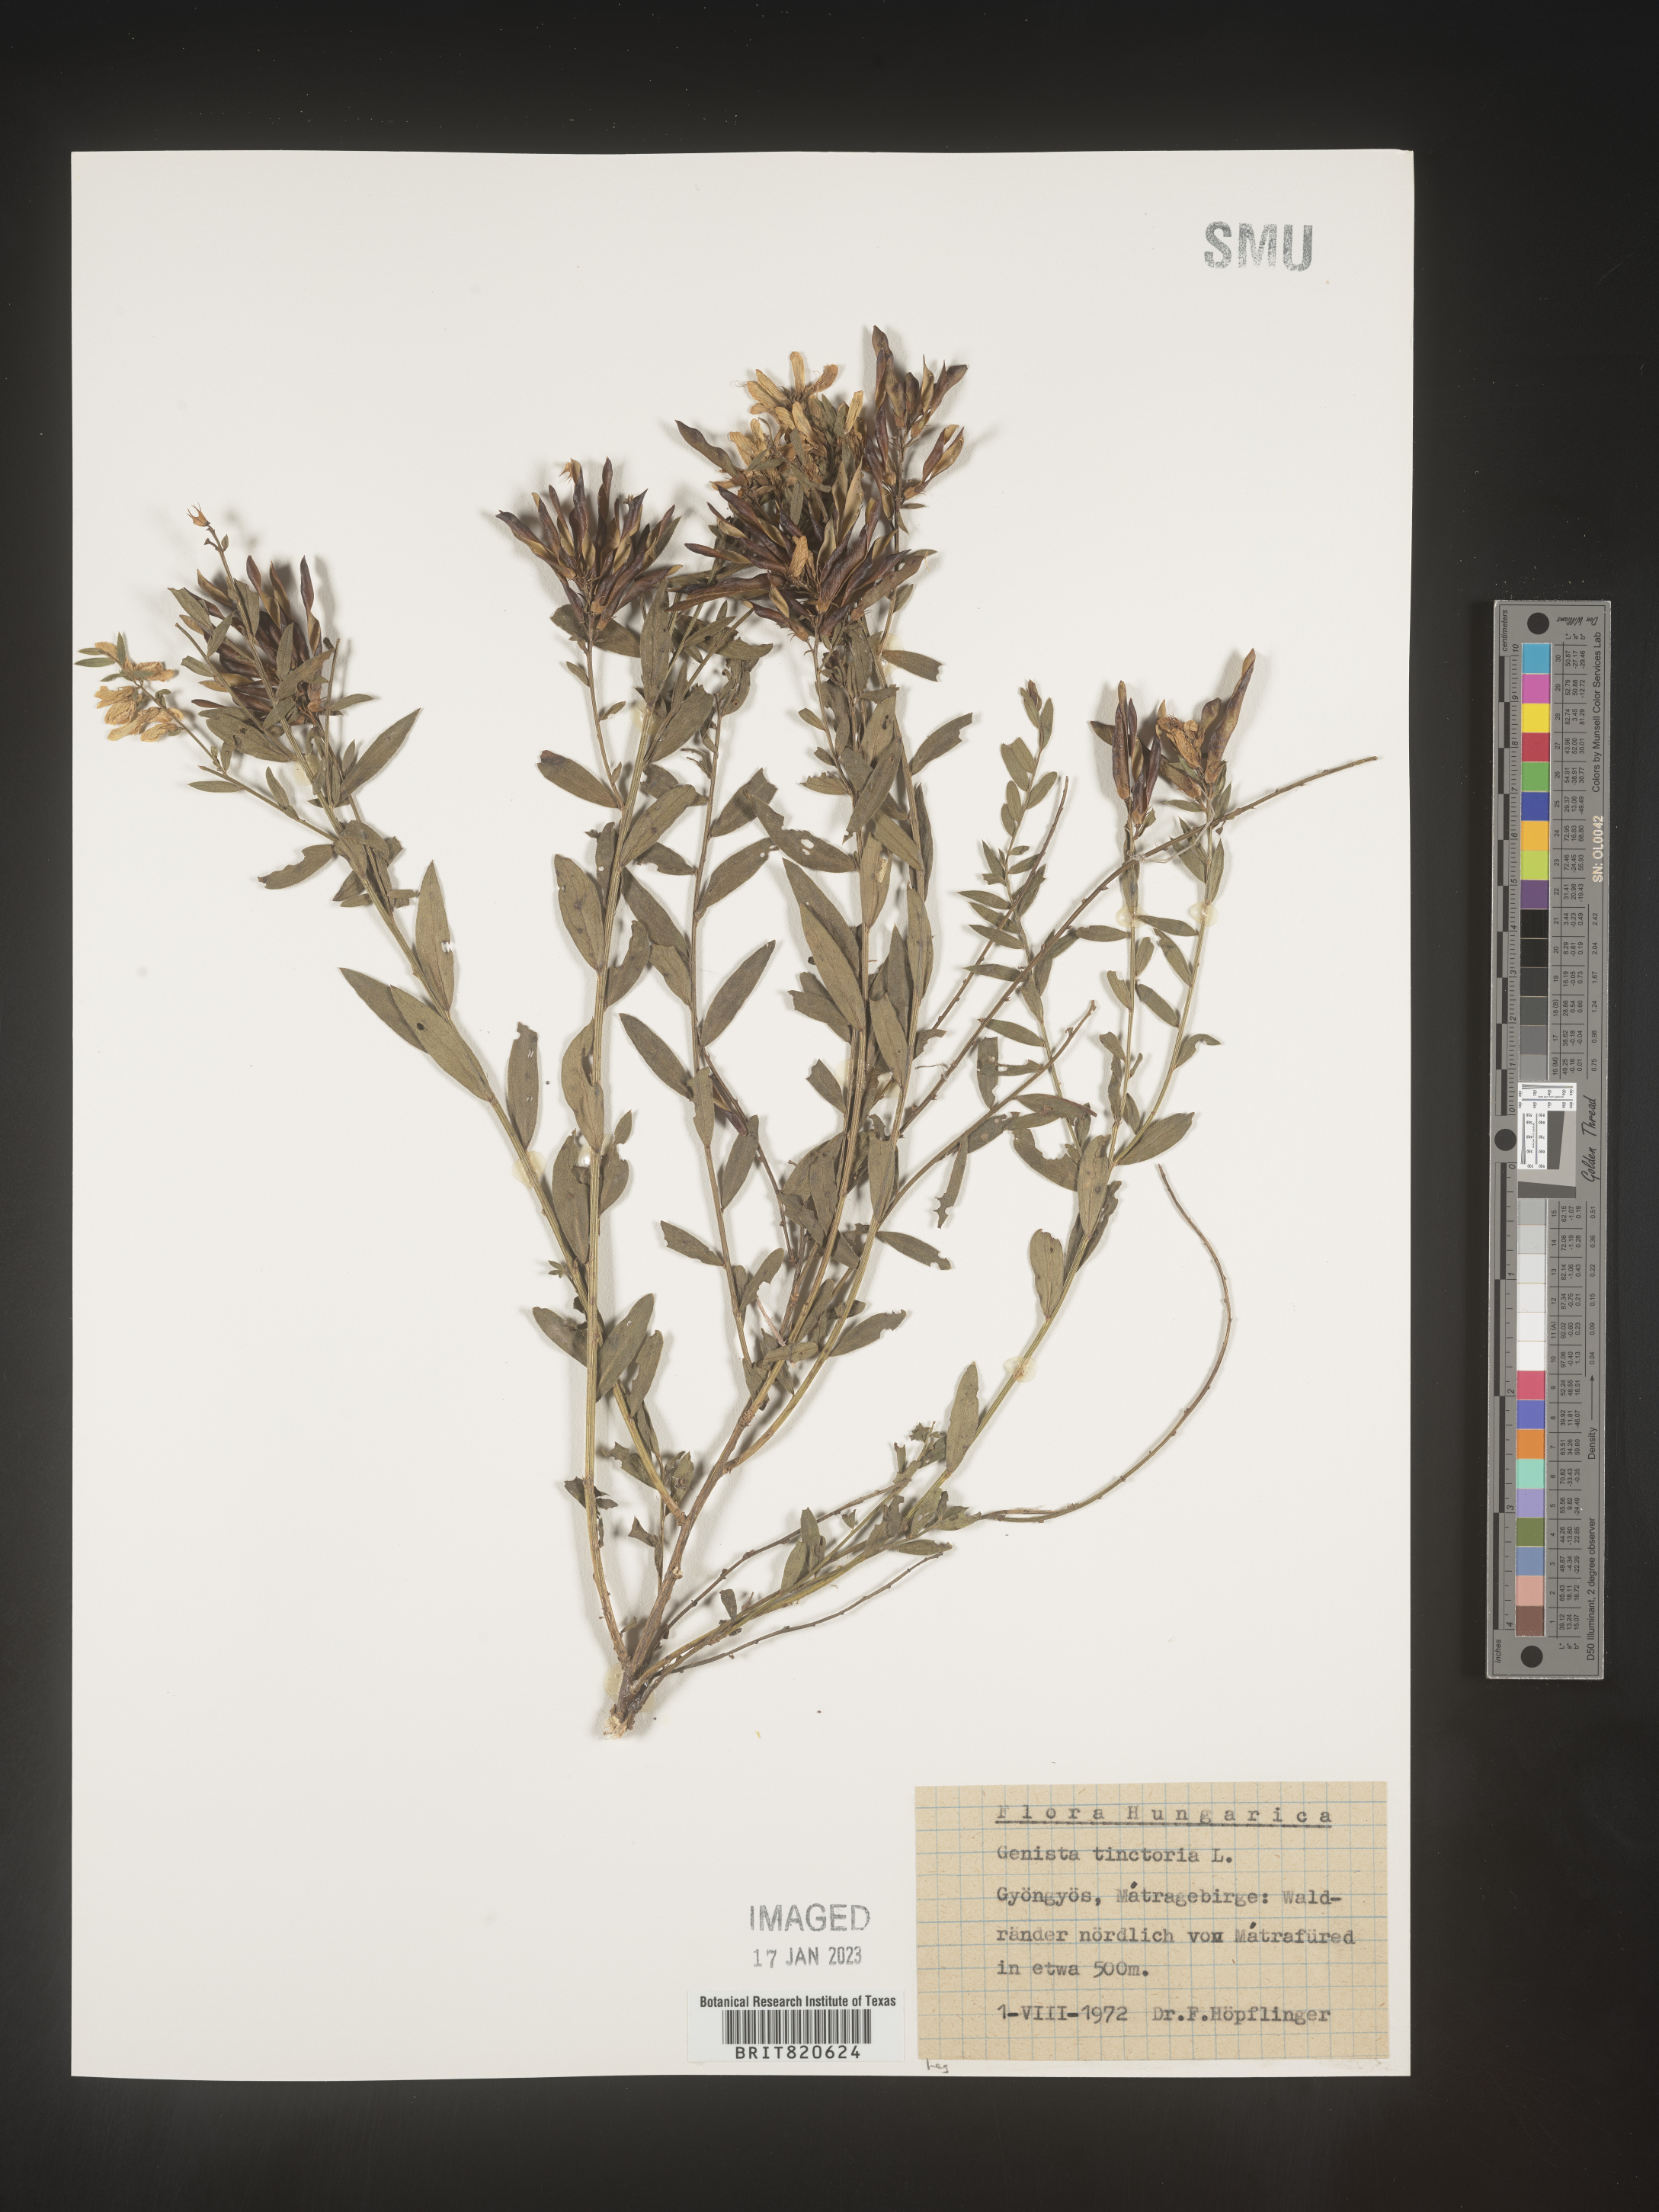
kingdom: Plantae
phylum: Tracheophyta
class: Magnoliopsida
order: Fabales
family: Fabaceae
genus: Genista
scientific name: Genista tinctoria
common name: Dyer's greenweed
